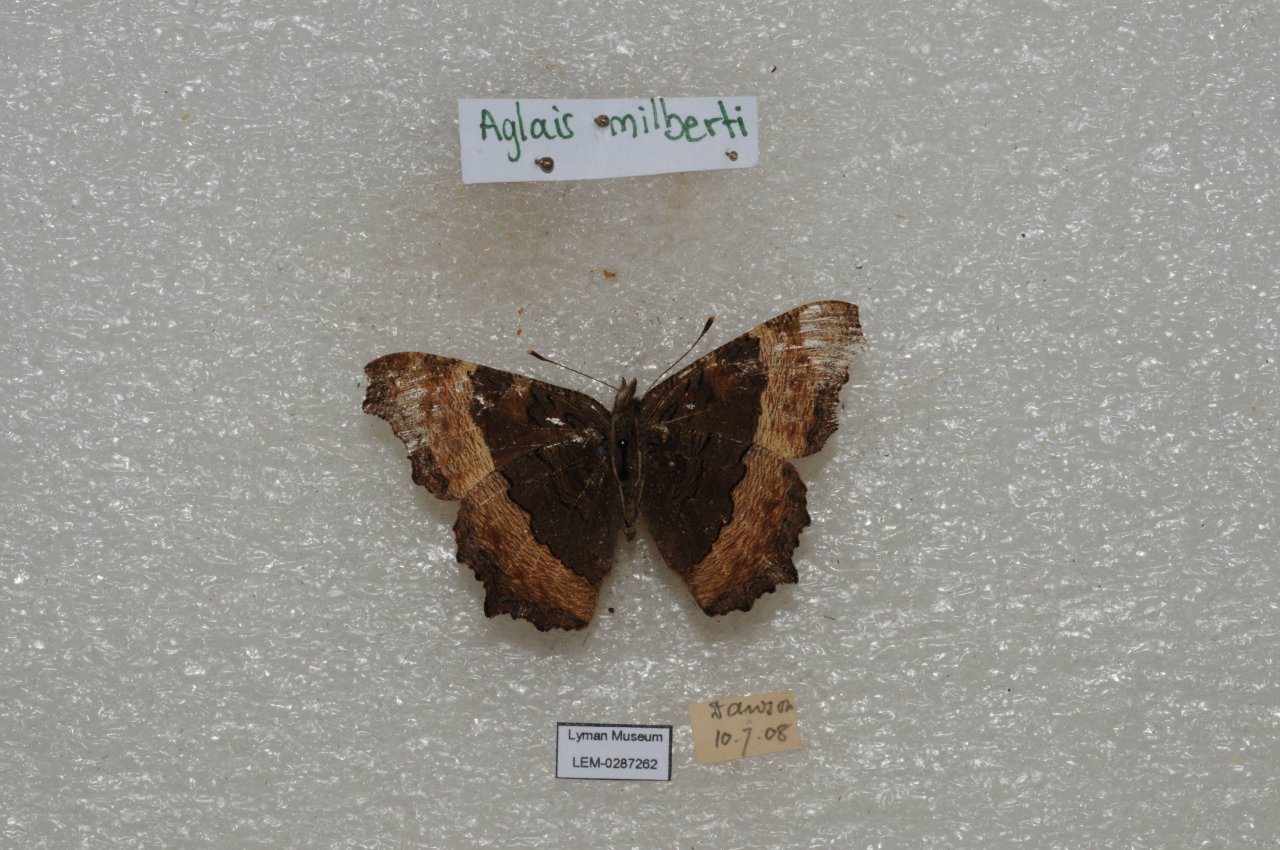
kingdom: Animalia
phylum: Arthropoda
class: Insecta
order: Lepidoptera
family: Nymphalidae
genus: Aglais
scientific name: Aglais milberti
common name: Milbert's Tortoiseshell
